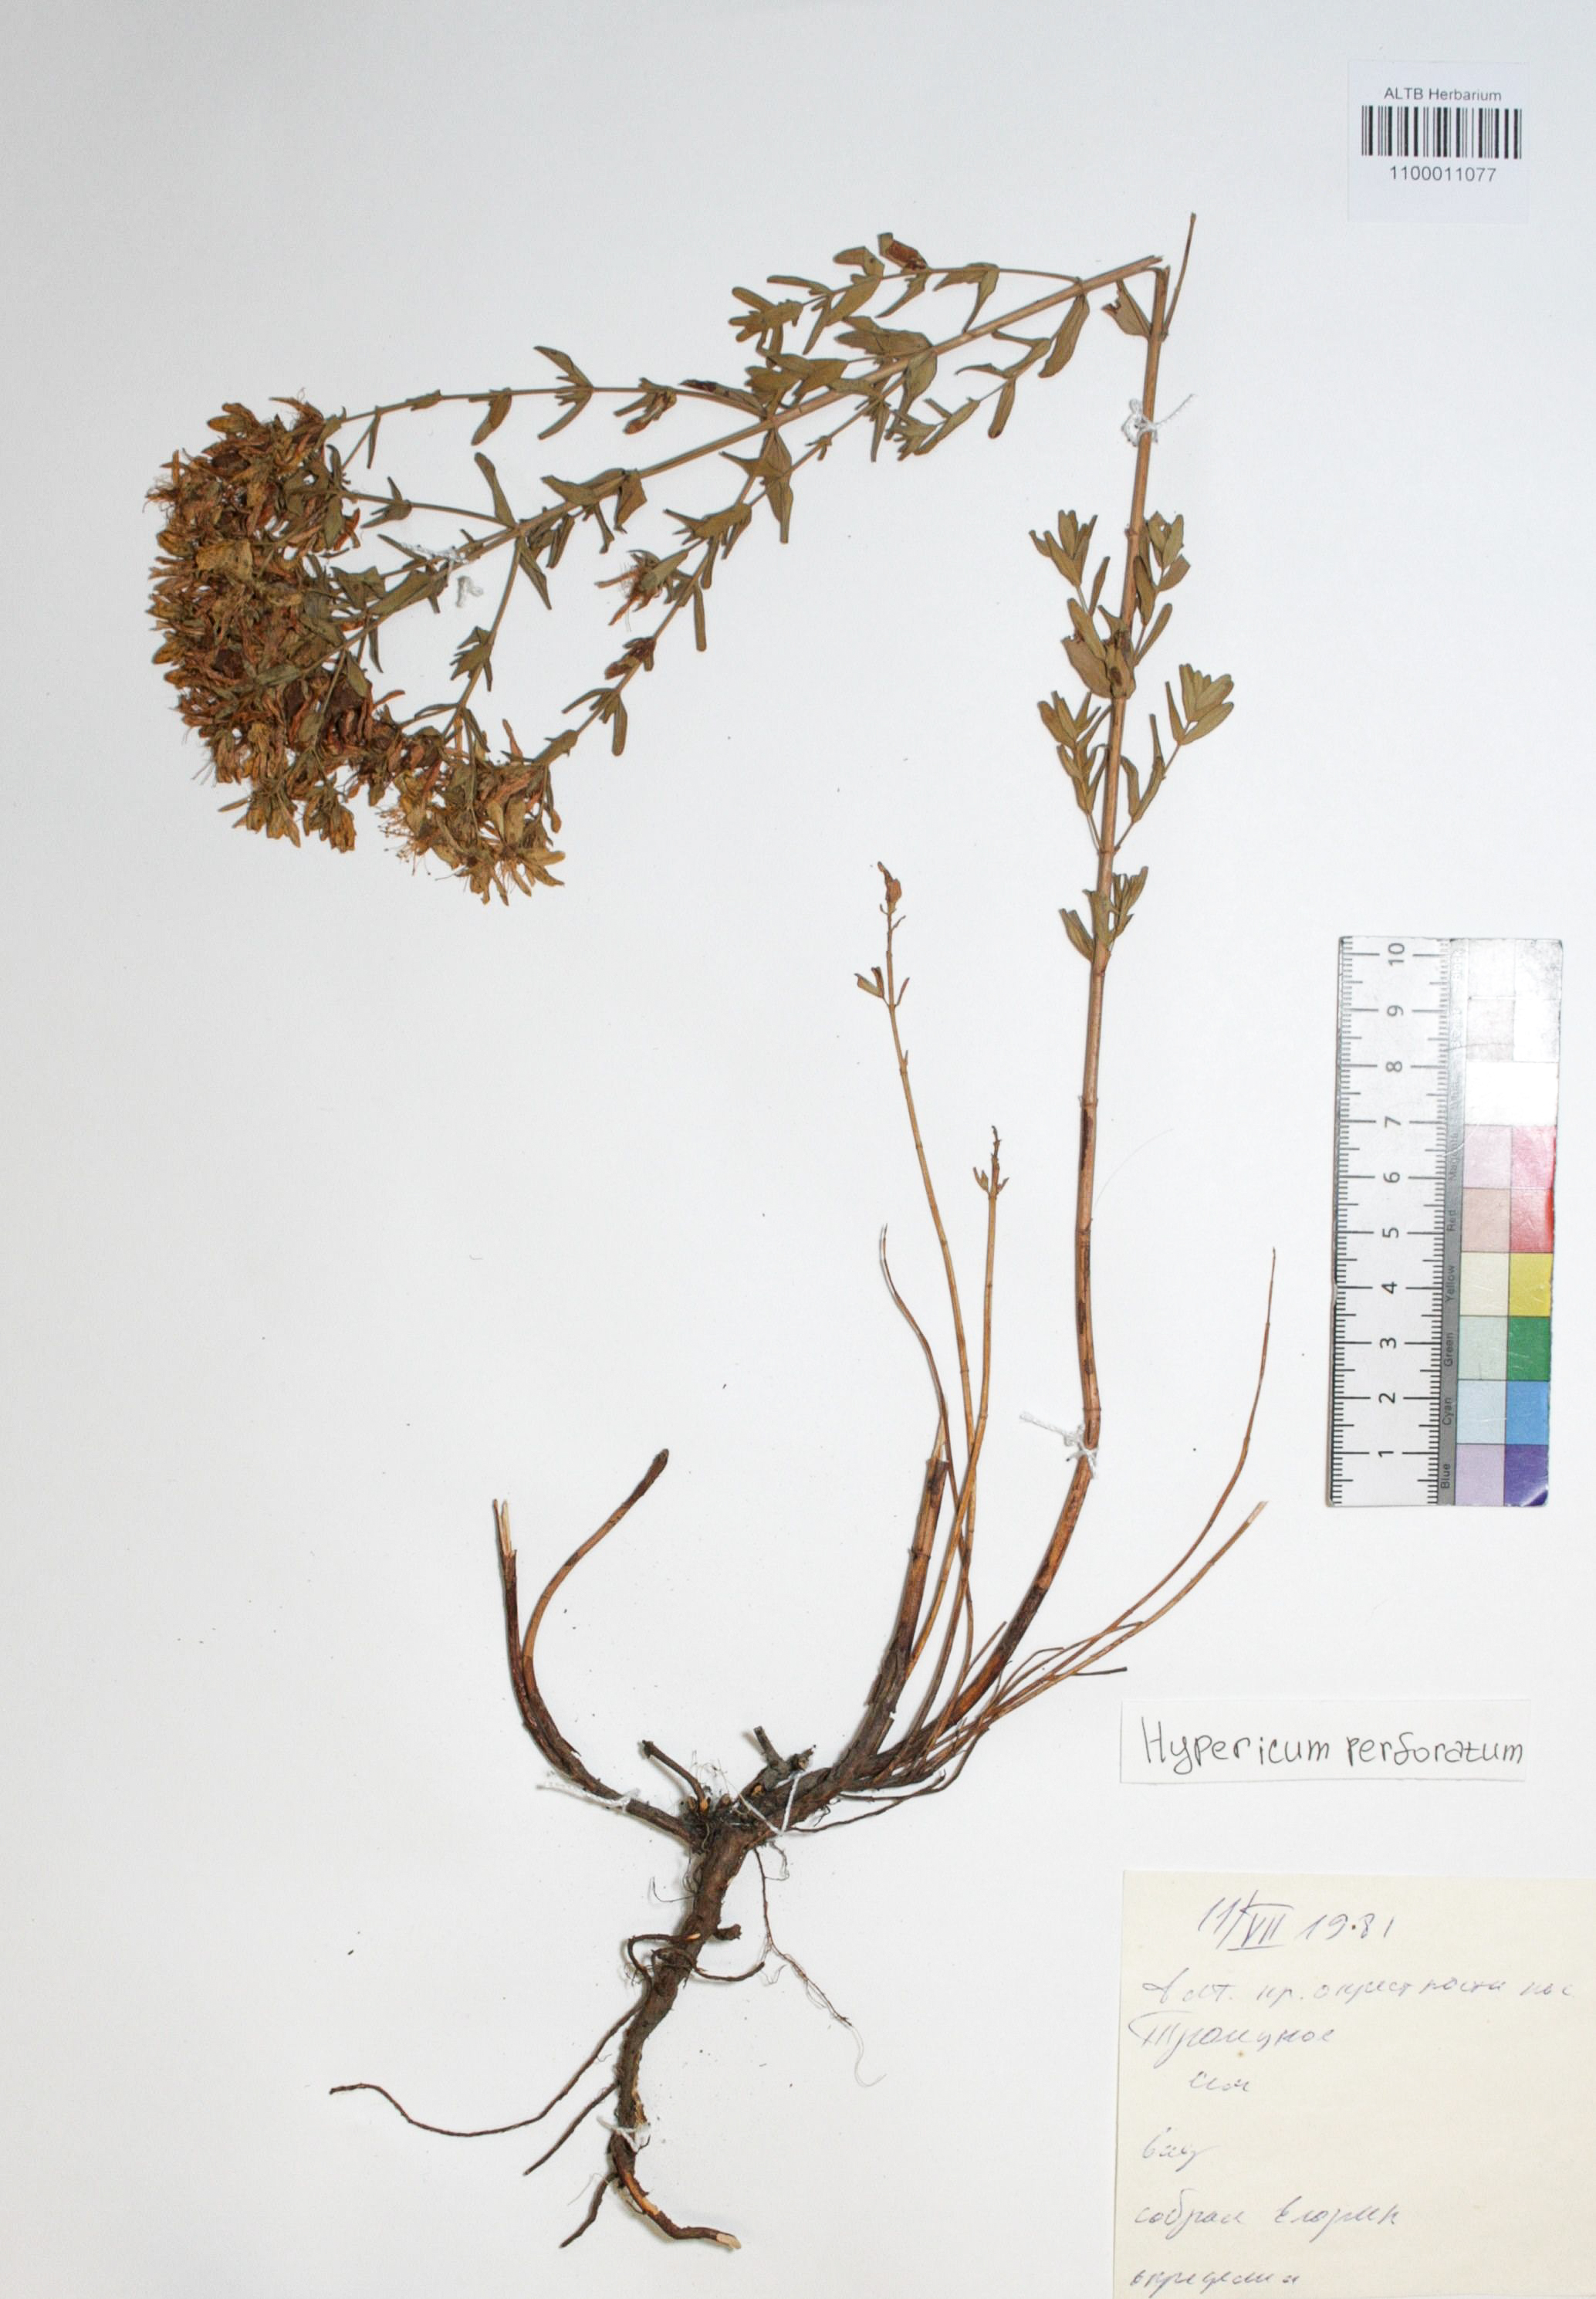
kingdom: Plantae
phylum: Tracheophyta
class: Magnoliopsida
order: Malpighiales
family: Hypericaceae
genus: Hypericum
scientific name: Hypericum perforatum
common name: Common st. johnswort
